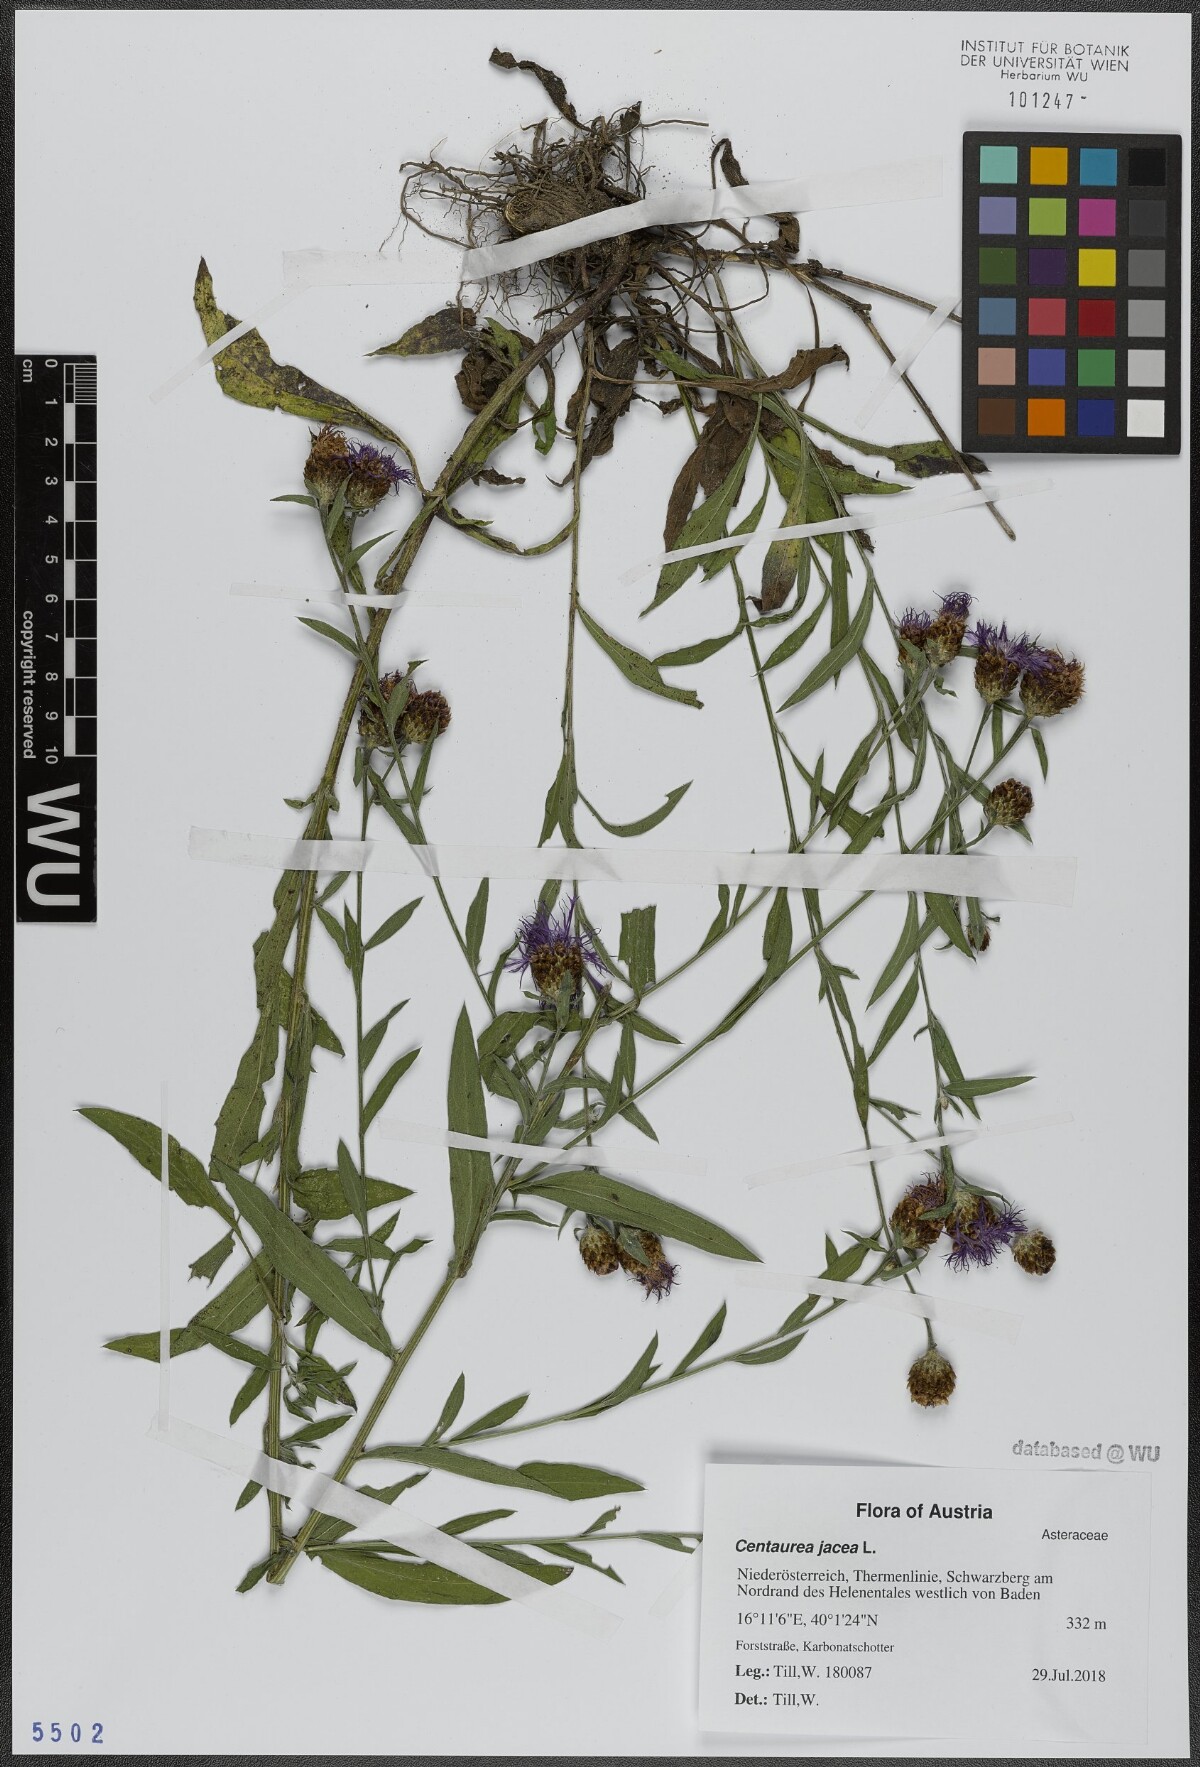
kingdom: Plantae
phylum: Tracheophyta
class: Magnoliopsida
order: Asterales
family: Asteraceae
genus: Centaurea
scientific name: Centaurea jacea
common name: Brown knapweed
